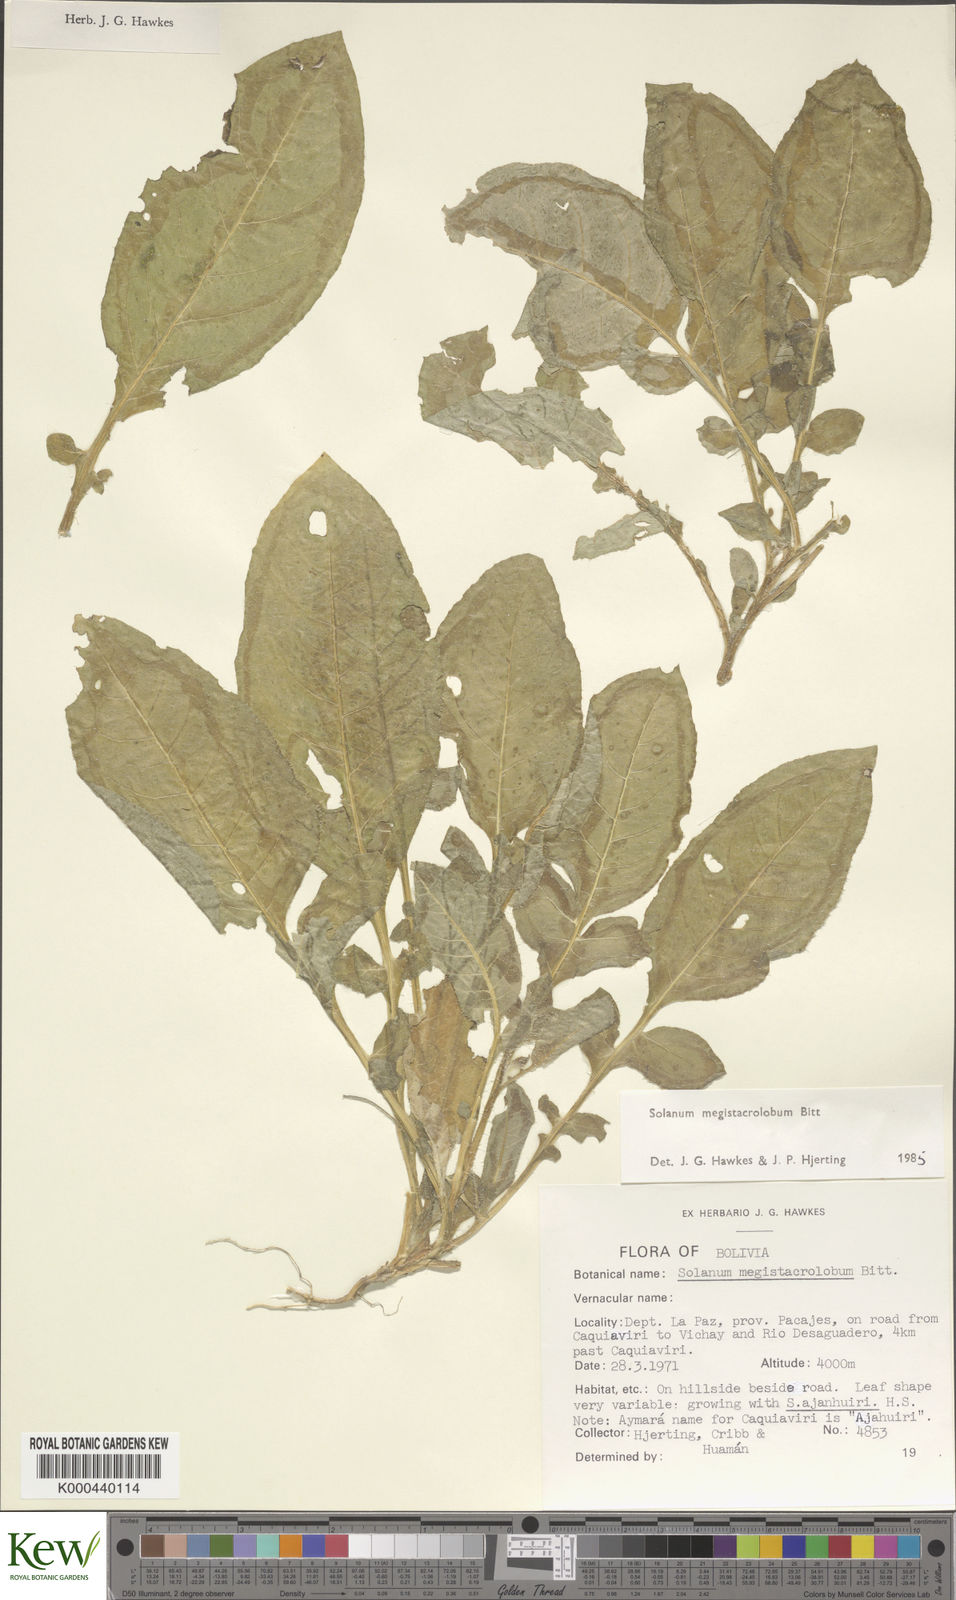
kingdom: Plantae
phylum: Tracheophyta
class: Magnoliopsida
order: Solanales
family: Solanaceae
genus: Solanum
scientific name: Solanum boliviense
